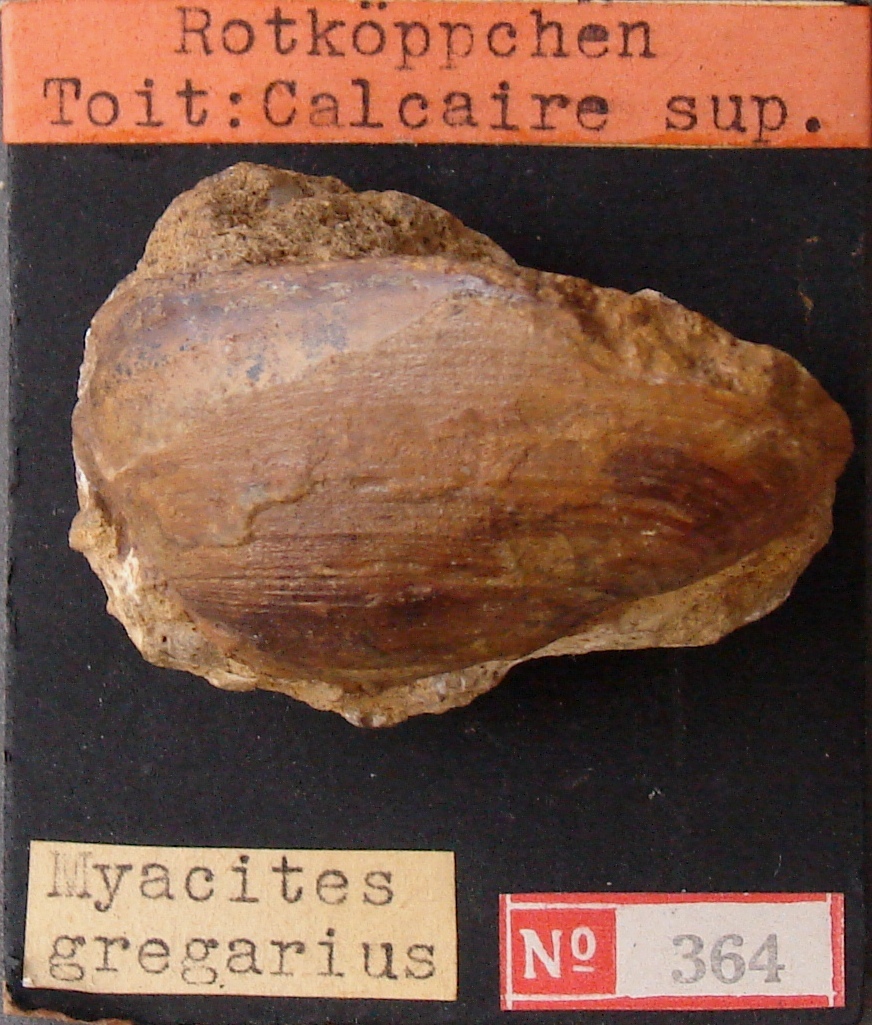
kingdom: Animalia
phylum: Mollusca
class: Bivalvia
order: Venerida
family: Mactridae
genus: Lutraria
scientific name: Lutraria gregaria
